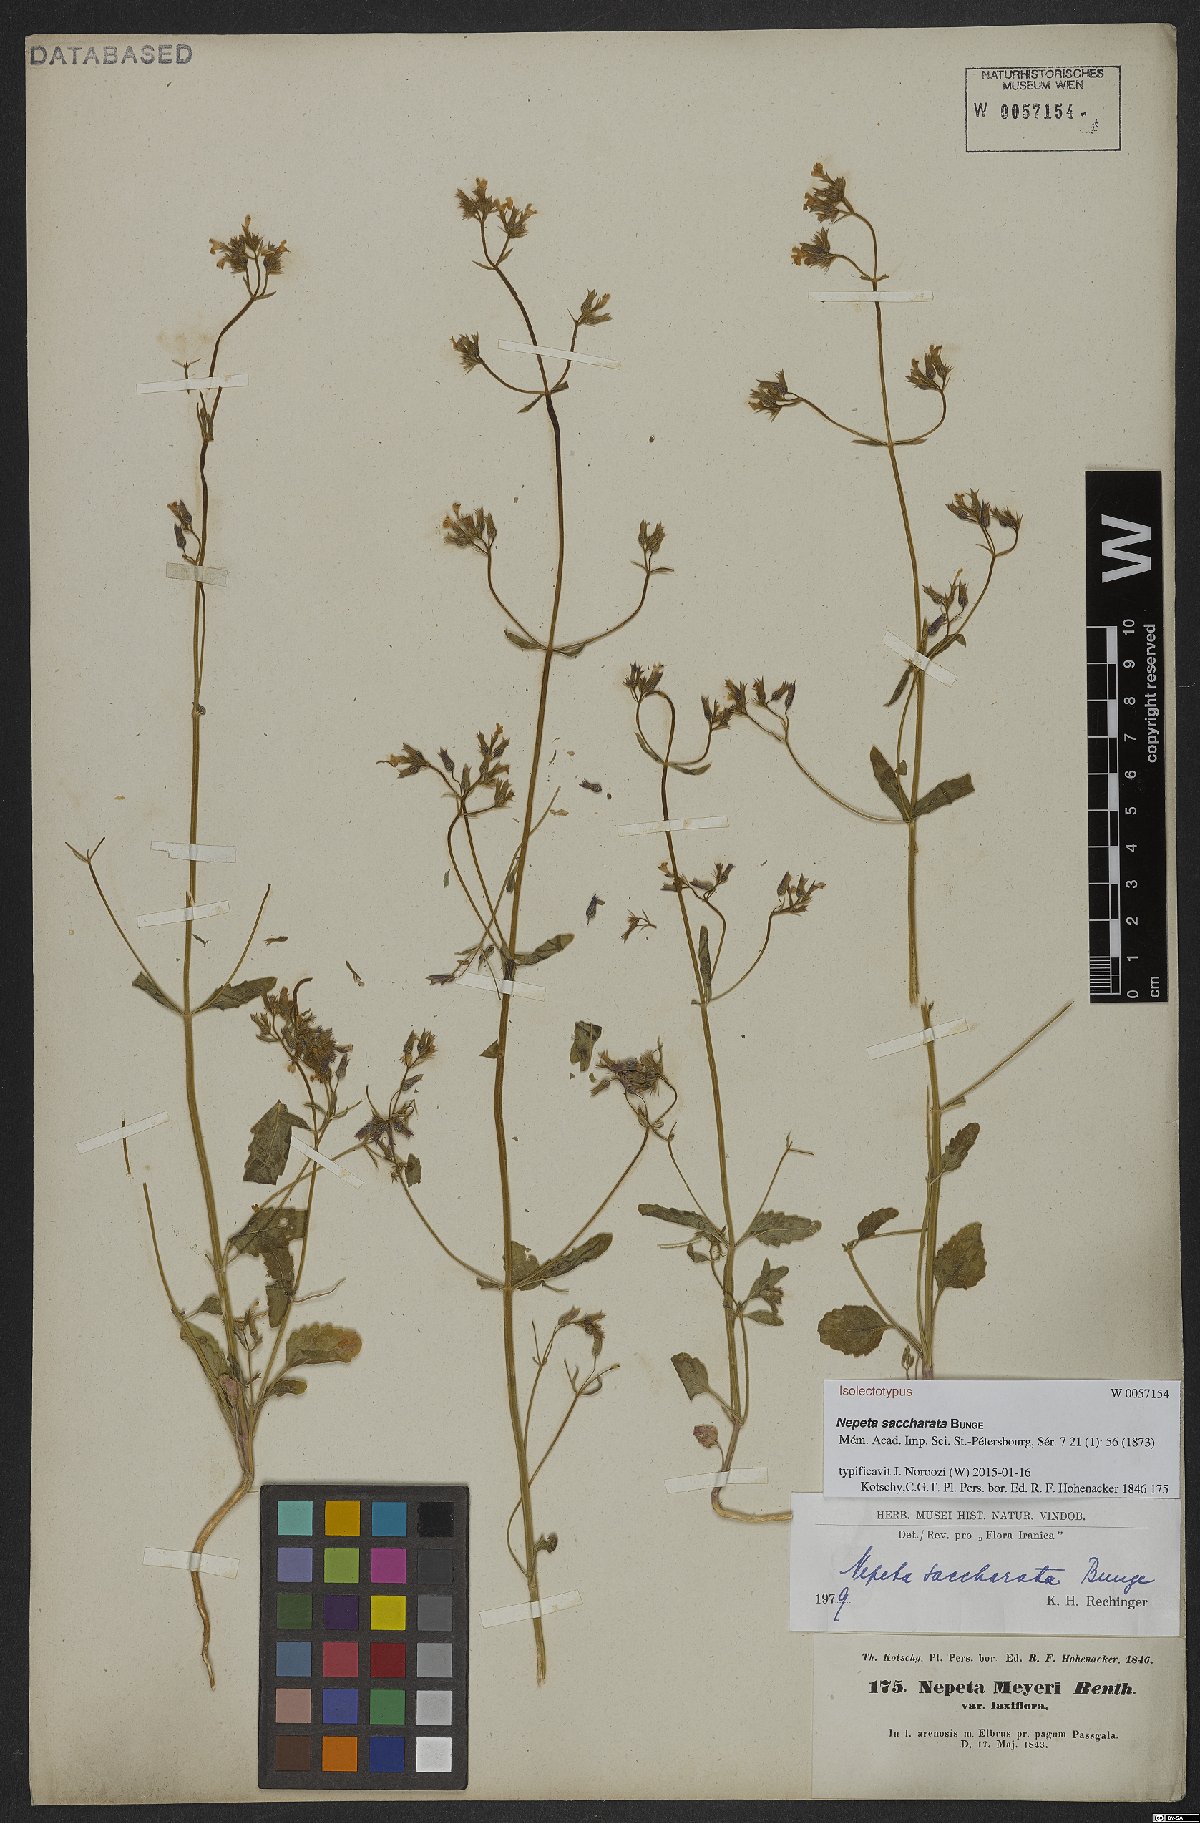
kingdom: Plantae
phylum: Tracheophyta
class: Magnoliopsida
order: Lamiales
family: Lamiaceae
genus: Nepeta
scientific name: Nepeta saccharata
